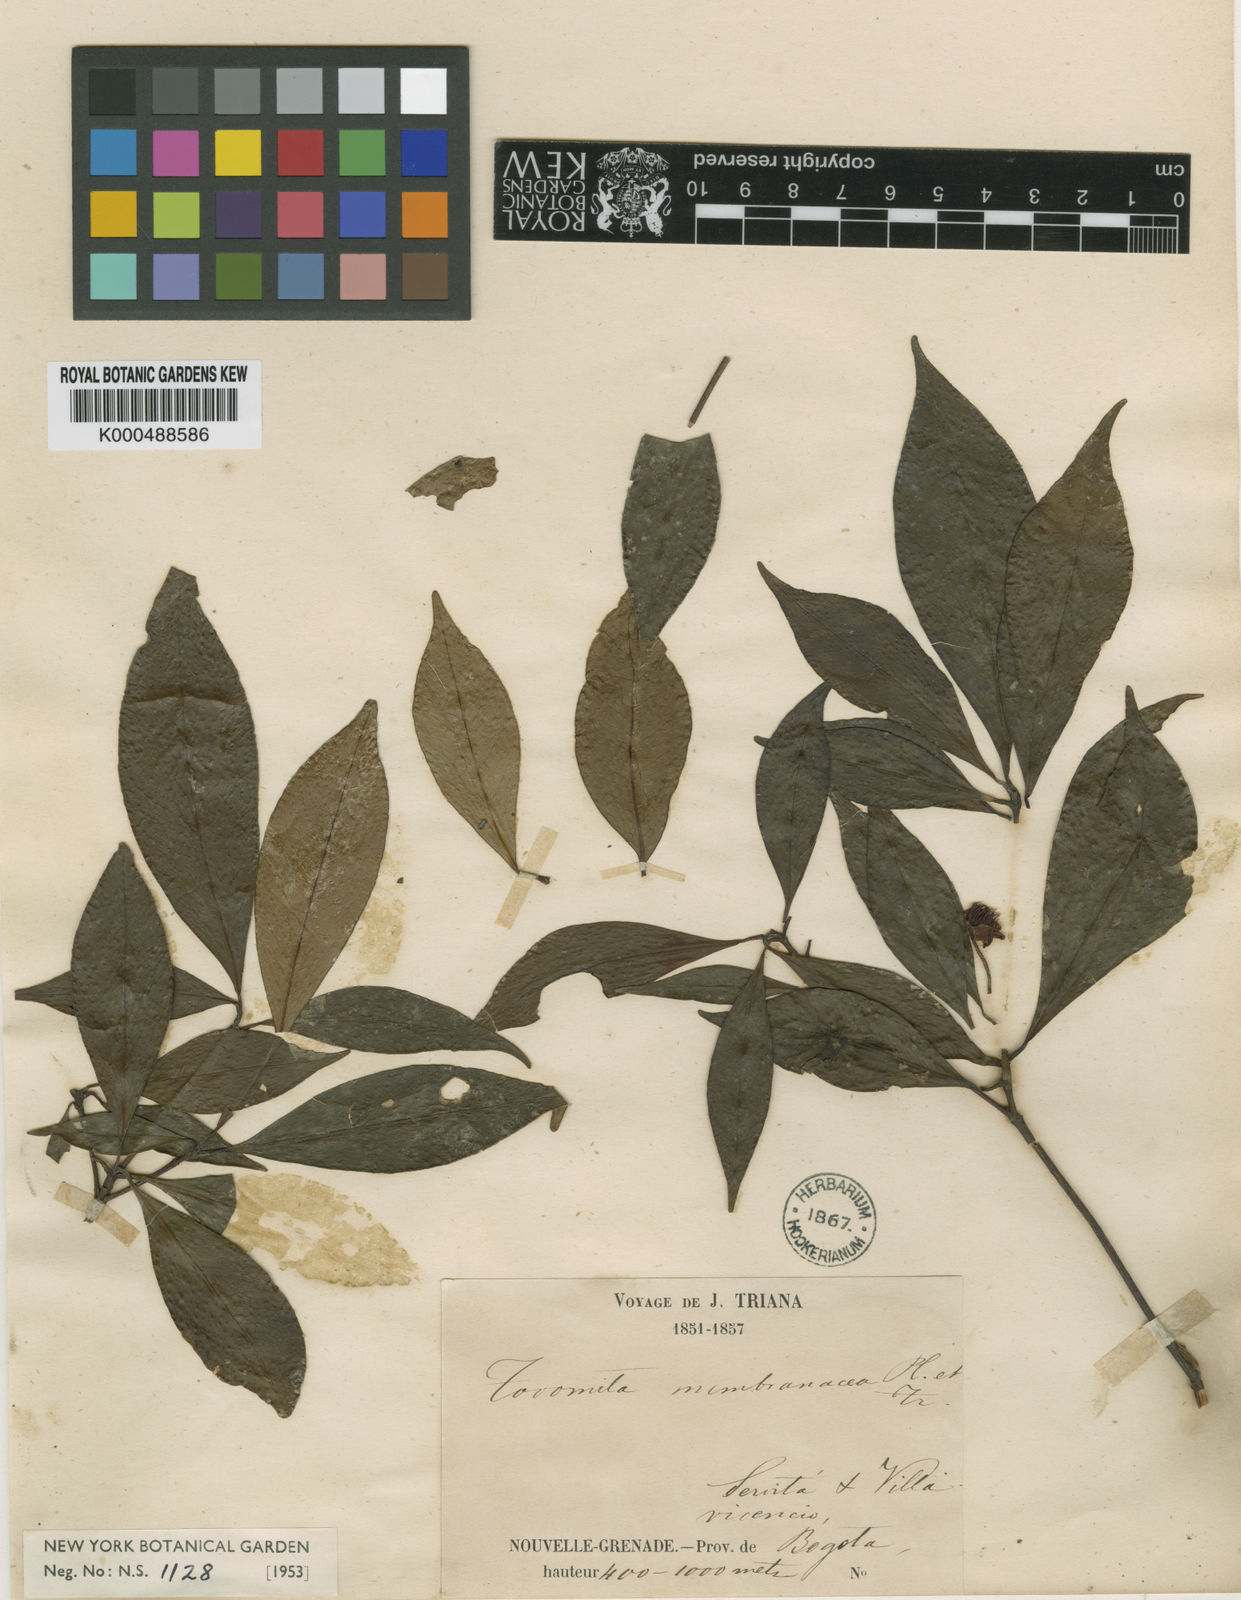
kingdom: Plantae
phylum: Tracheophyta
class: Magnoliopsida
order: Malpighiales
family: Clusiaceae
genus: Tovomita
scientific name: Tovomita
